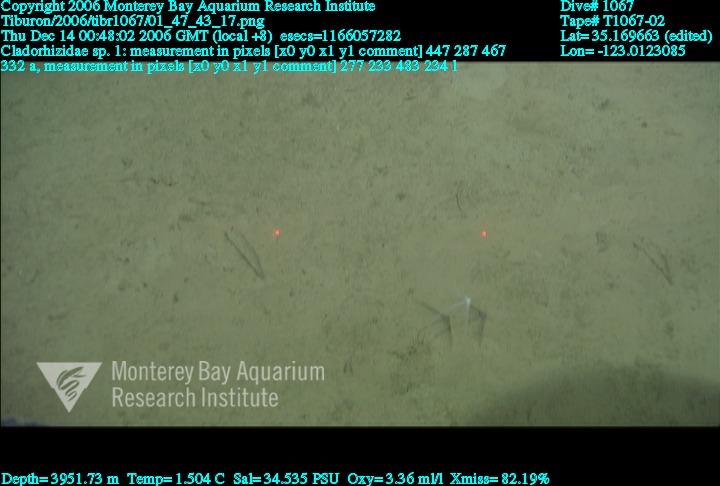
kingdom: Animalia
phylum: Porifera
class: Demospongiae
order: Poecilosclerida
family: Cladorhizidae
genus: Cladorhiza
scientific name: Cladorhiza
